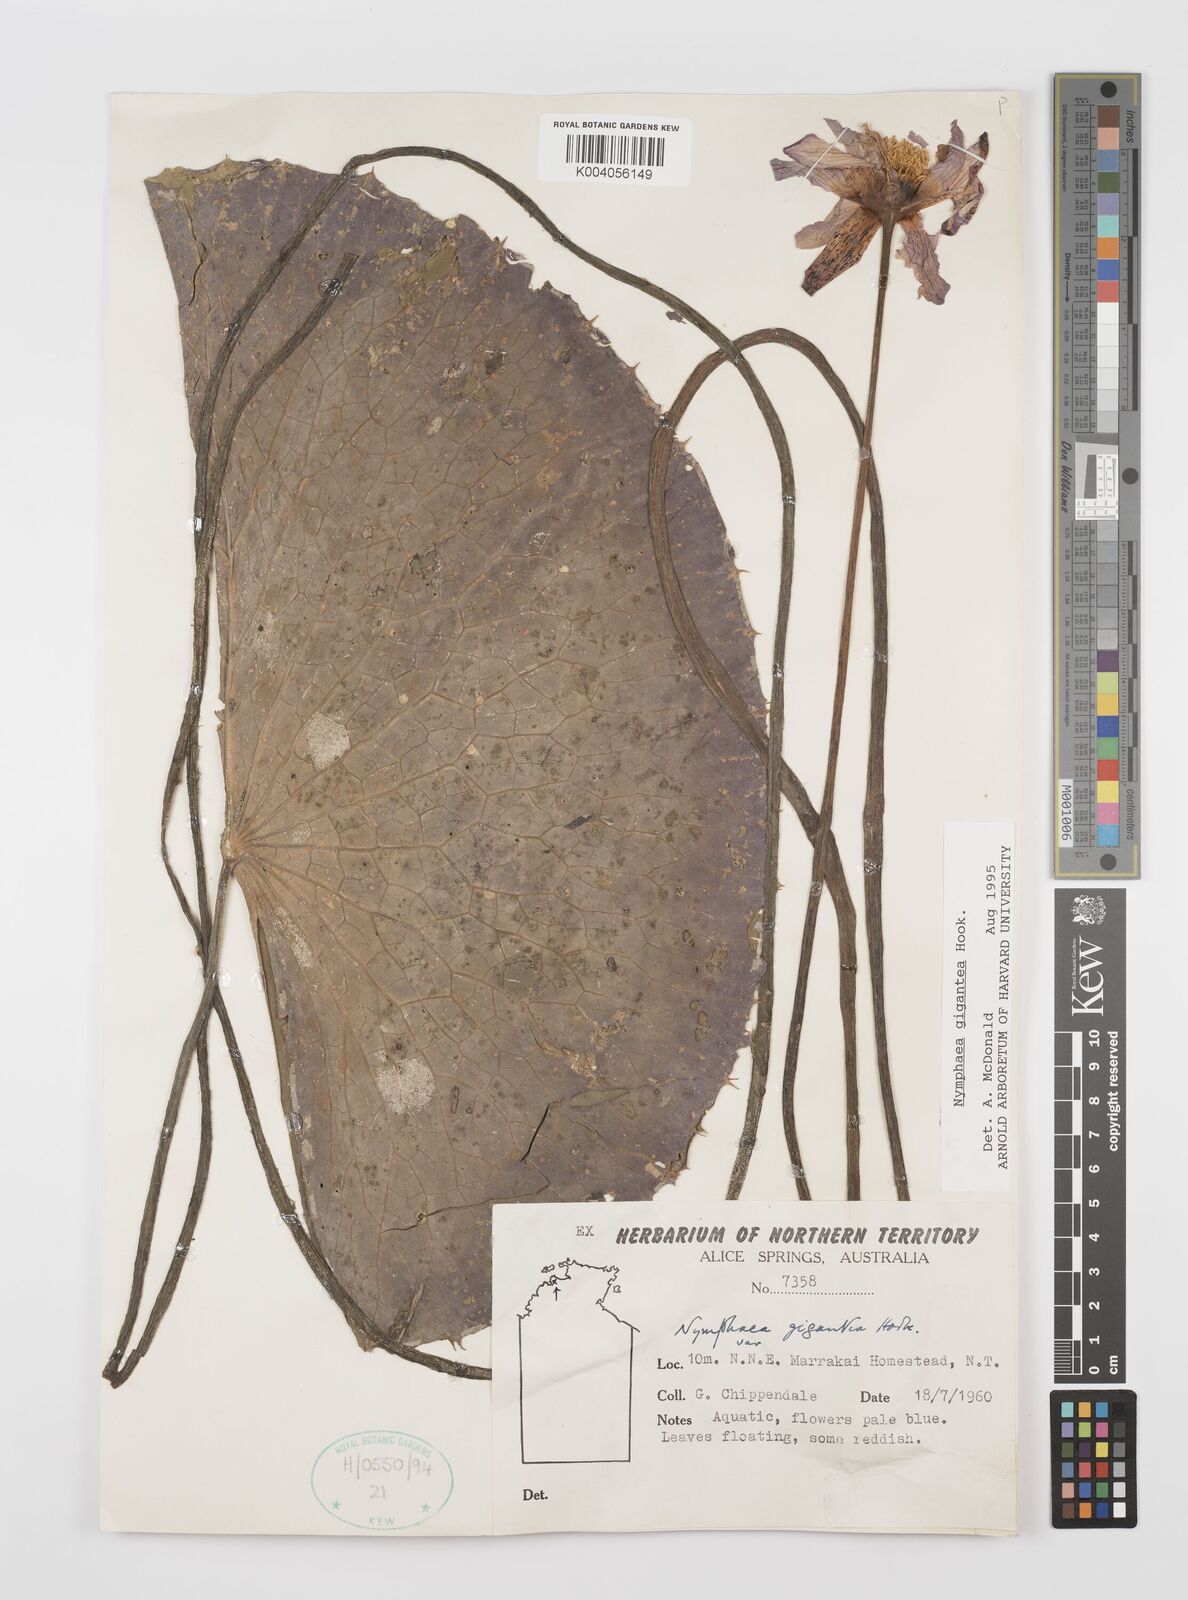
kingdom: Plantae
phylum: Tracheophyta
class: Magnoliopsida
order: Nymphaeales
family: Nymphaeaceae
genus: Nymphaea
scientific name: Nymphaea gigantea
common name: Giant water-lily
